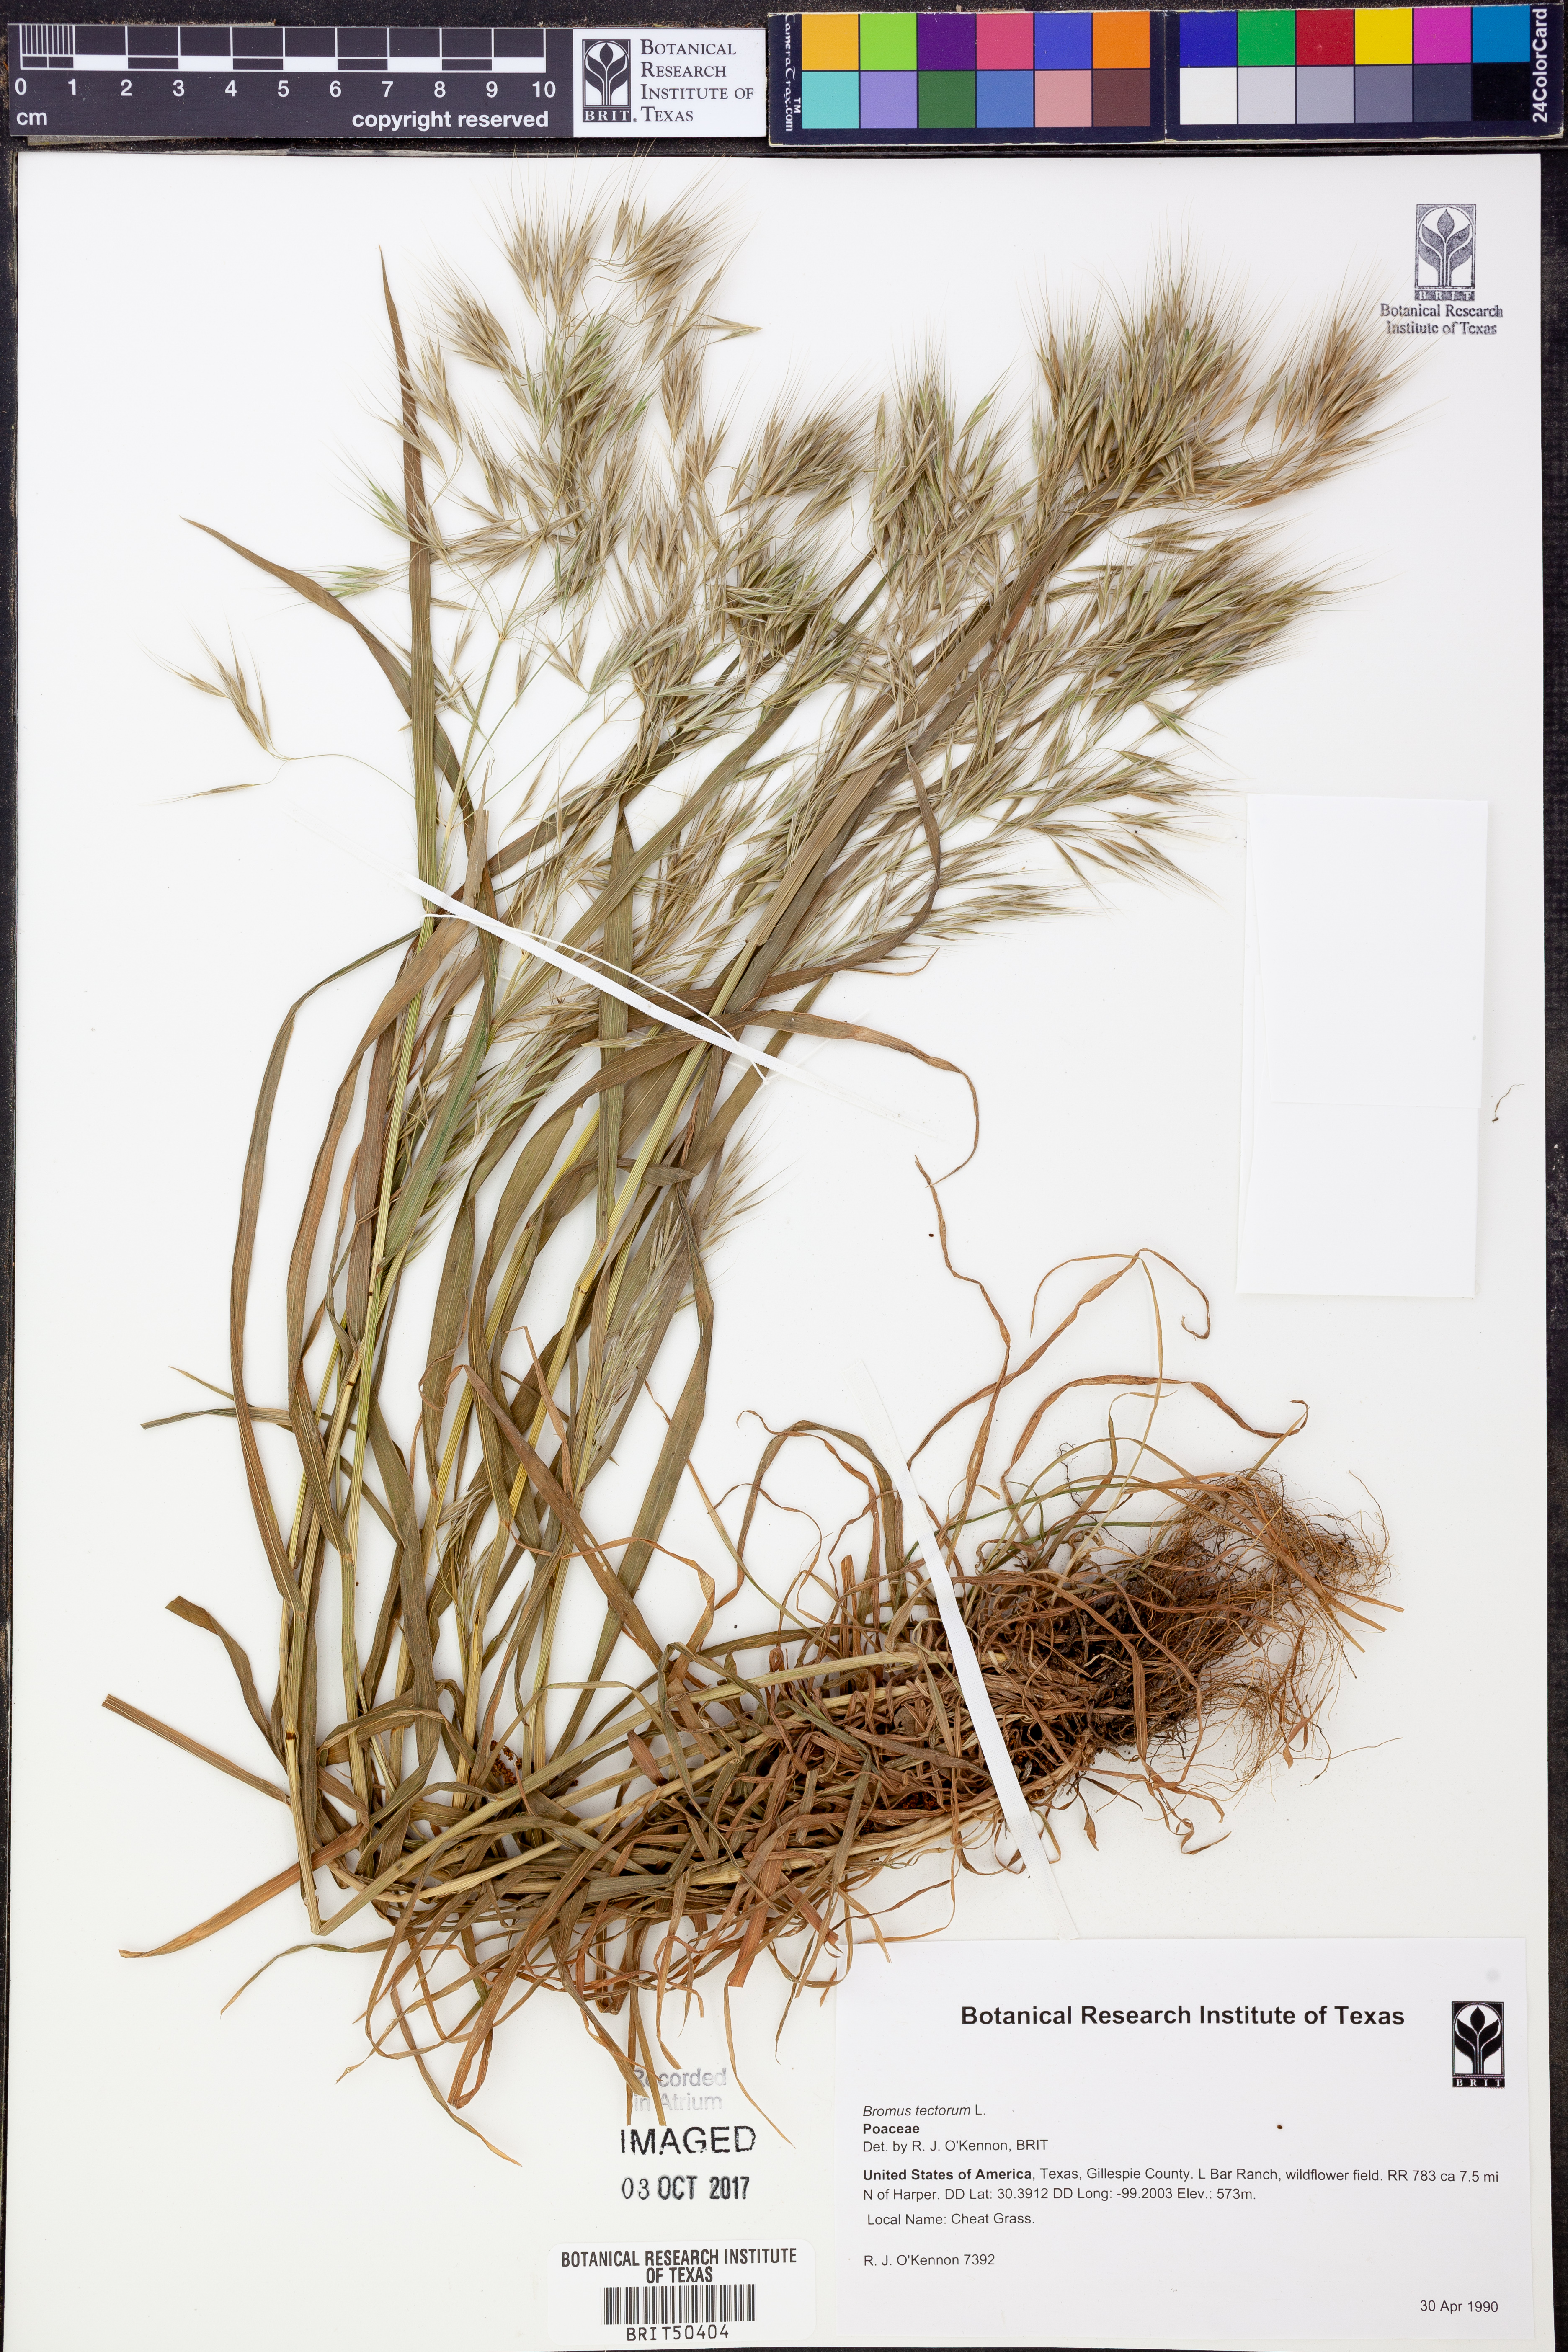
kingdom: Plantae
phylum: Tracheophyta
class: Liliopsida
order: Poales
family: Poaceae
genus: Bromus
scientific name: Bromus tectorum
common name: Cheatgrass
